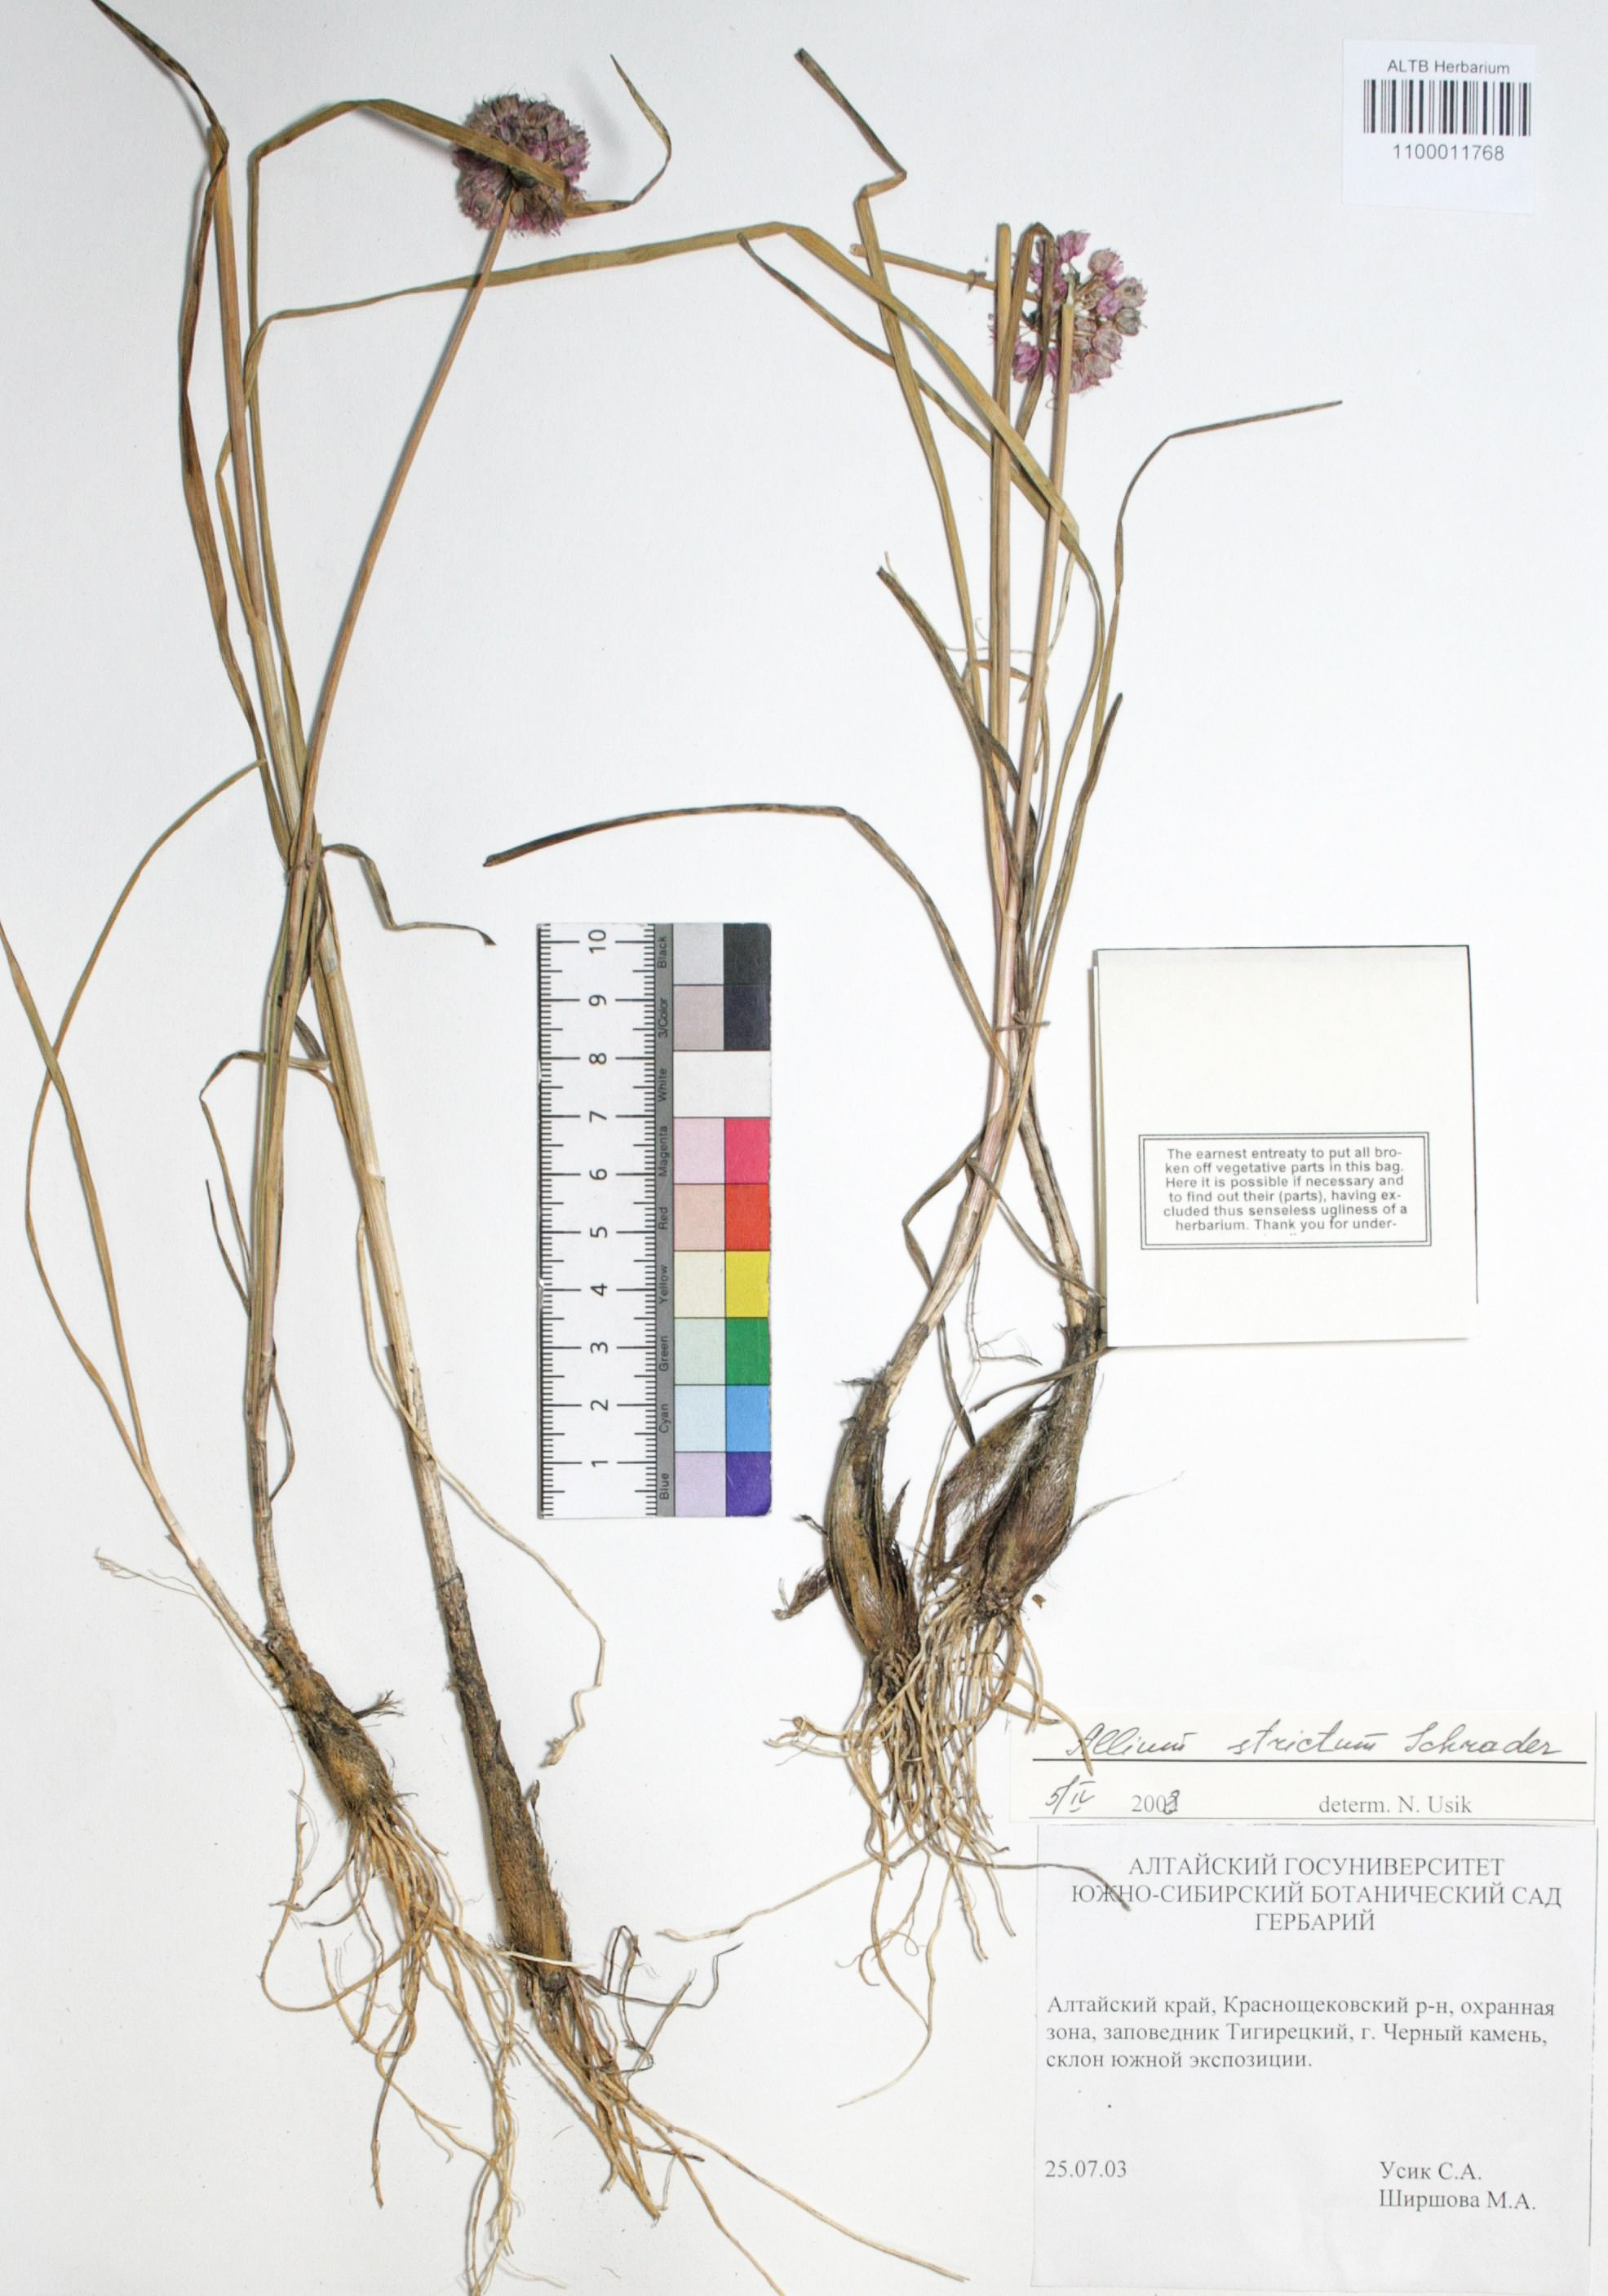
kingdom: Plantae
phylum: Tracheophyta
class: Liliopsida
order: Asparagales
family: Amaryllidaceae
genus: Allium
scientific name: Allium strictum
